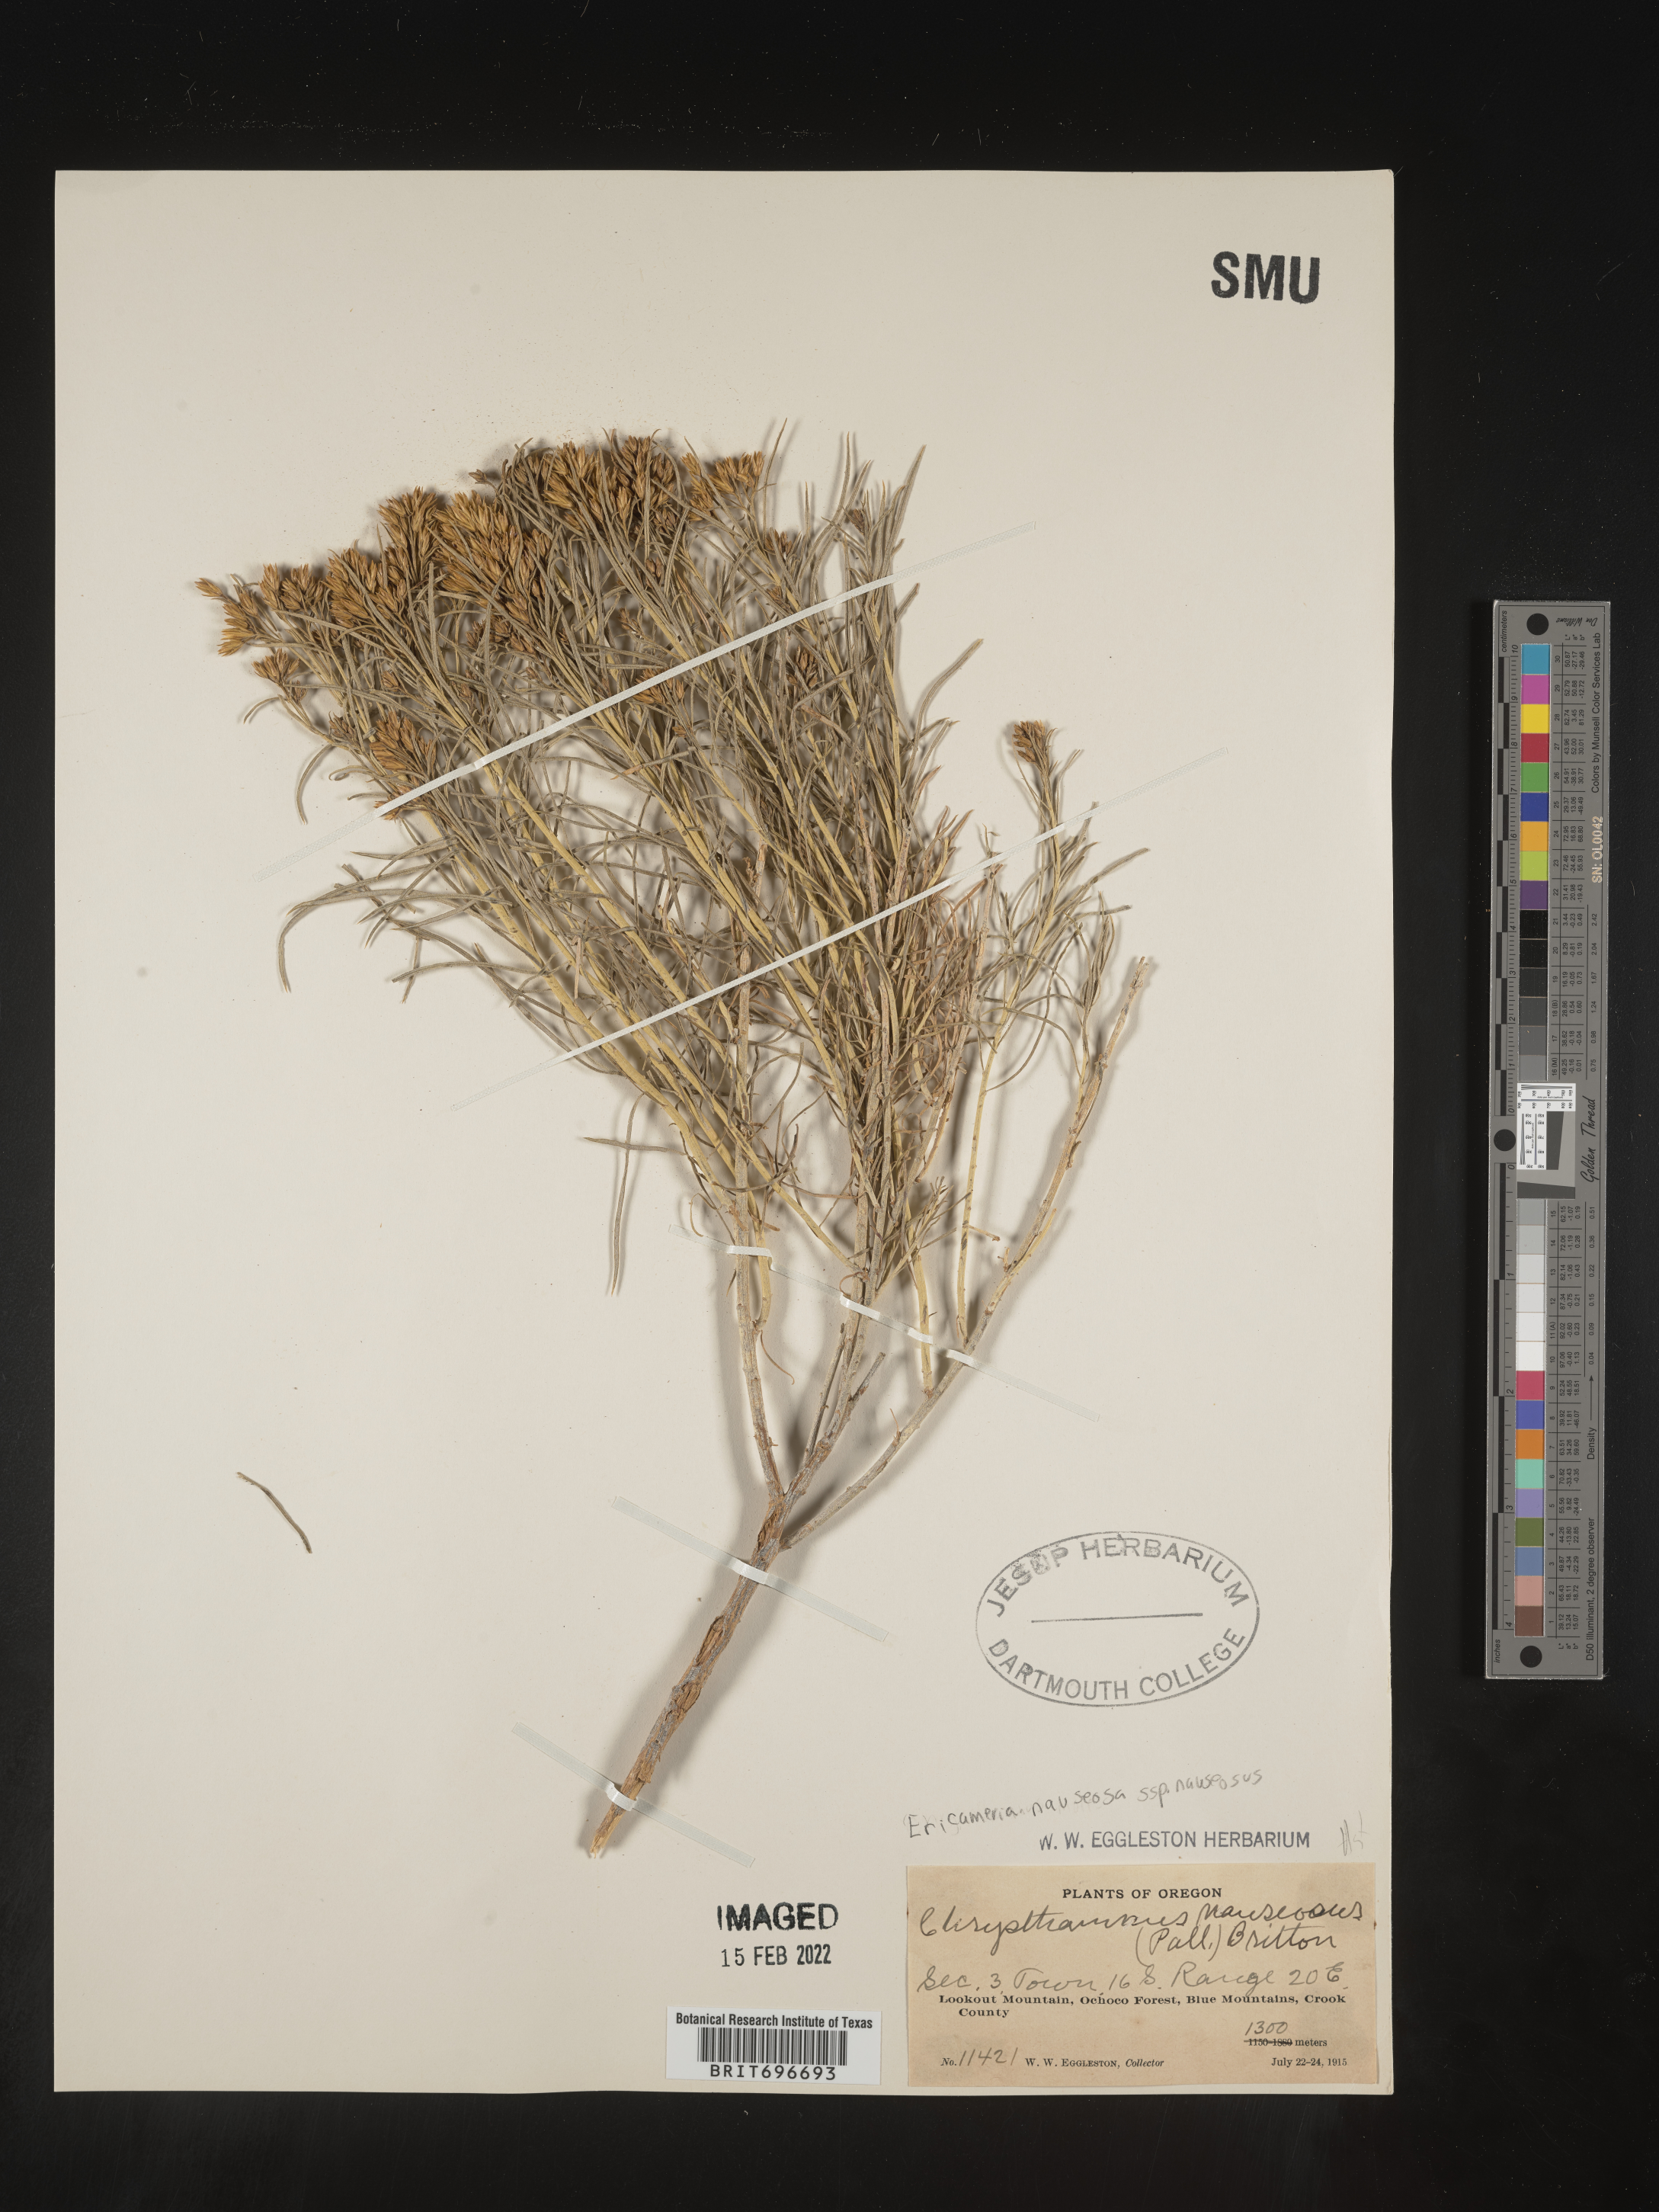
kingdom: Plantae
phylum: Tracheophyta
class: Magnoliopsida
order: Asterales
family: Asteraceae
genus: Ericameria
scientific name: Ericameria nauseosa
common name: Rubber rabbitbrush
